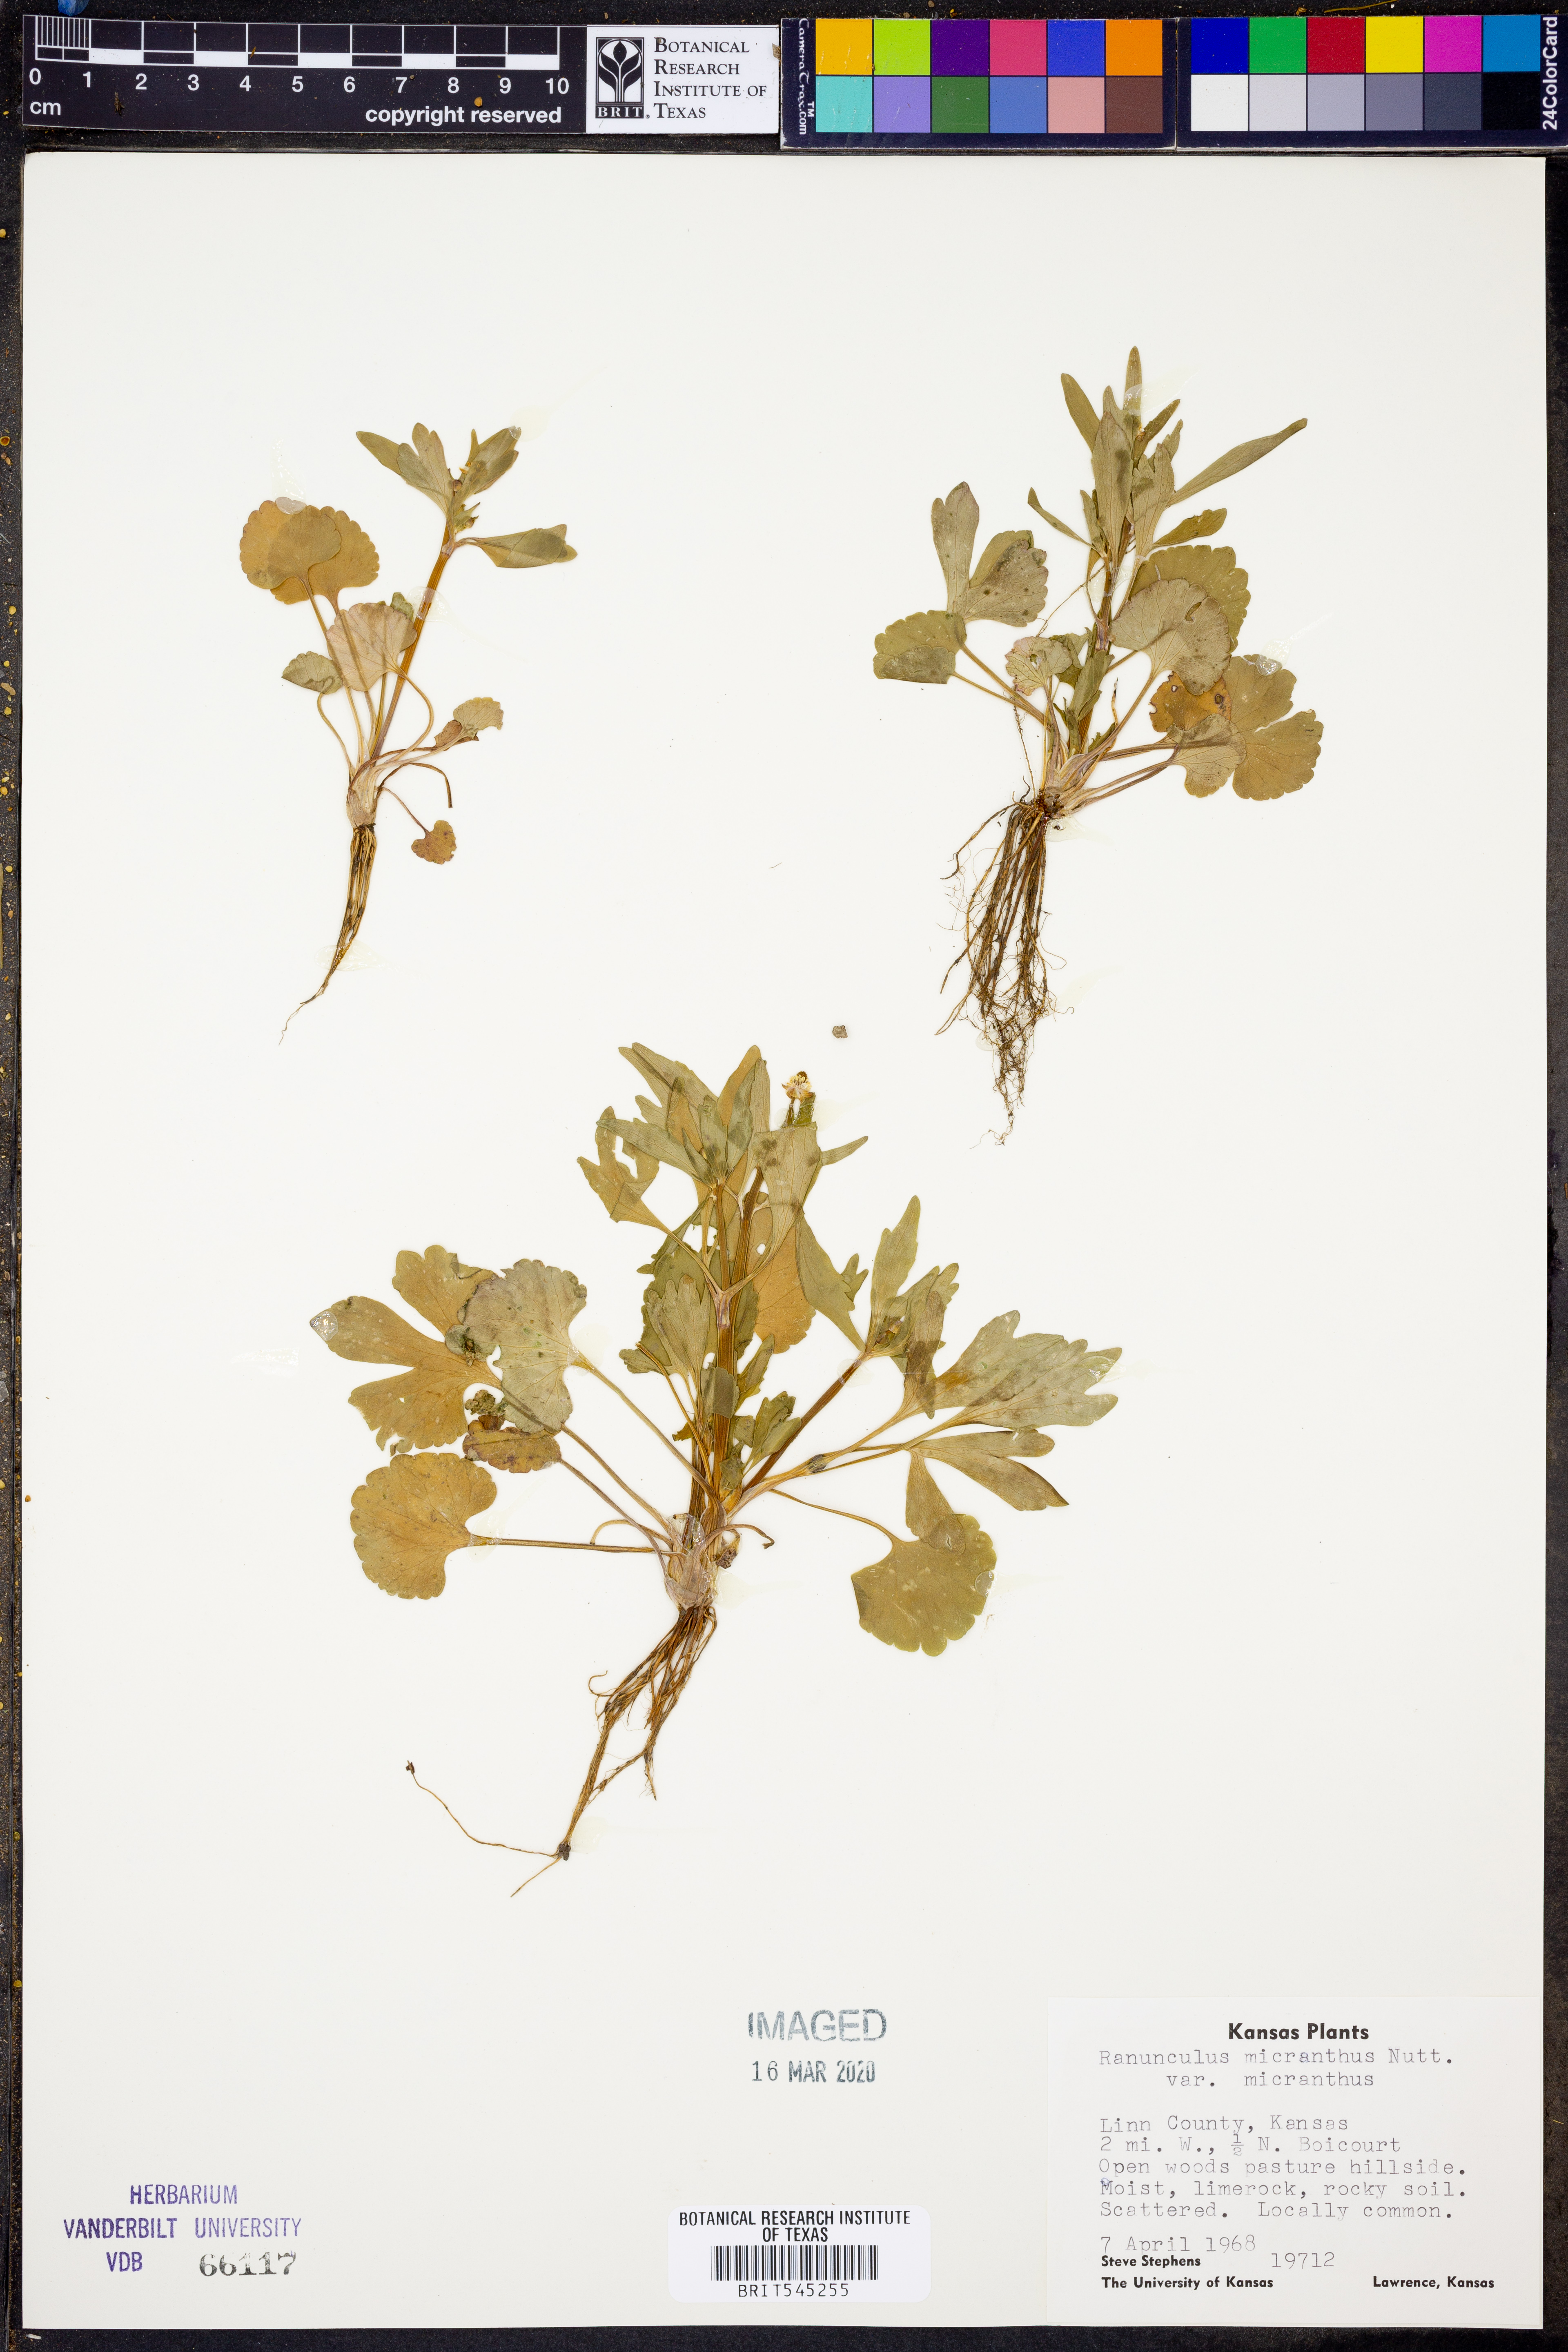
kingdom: Plantae
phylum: Tracheophyta
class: Magnoliopsida
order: Ranunculales
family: Ranunculaceae
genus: Ranunculus
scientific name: Ranunculus micranthus
